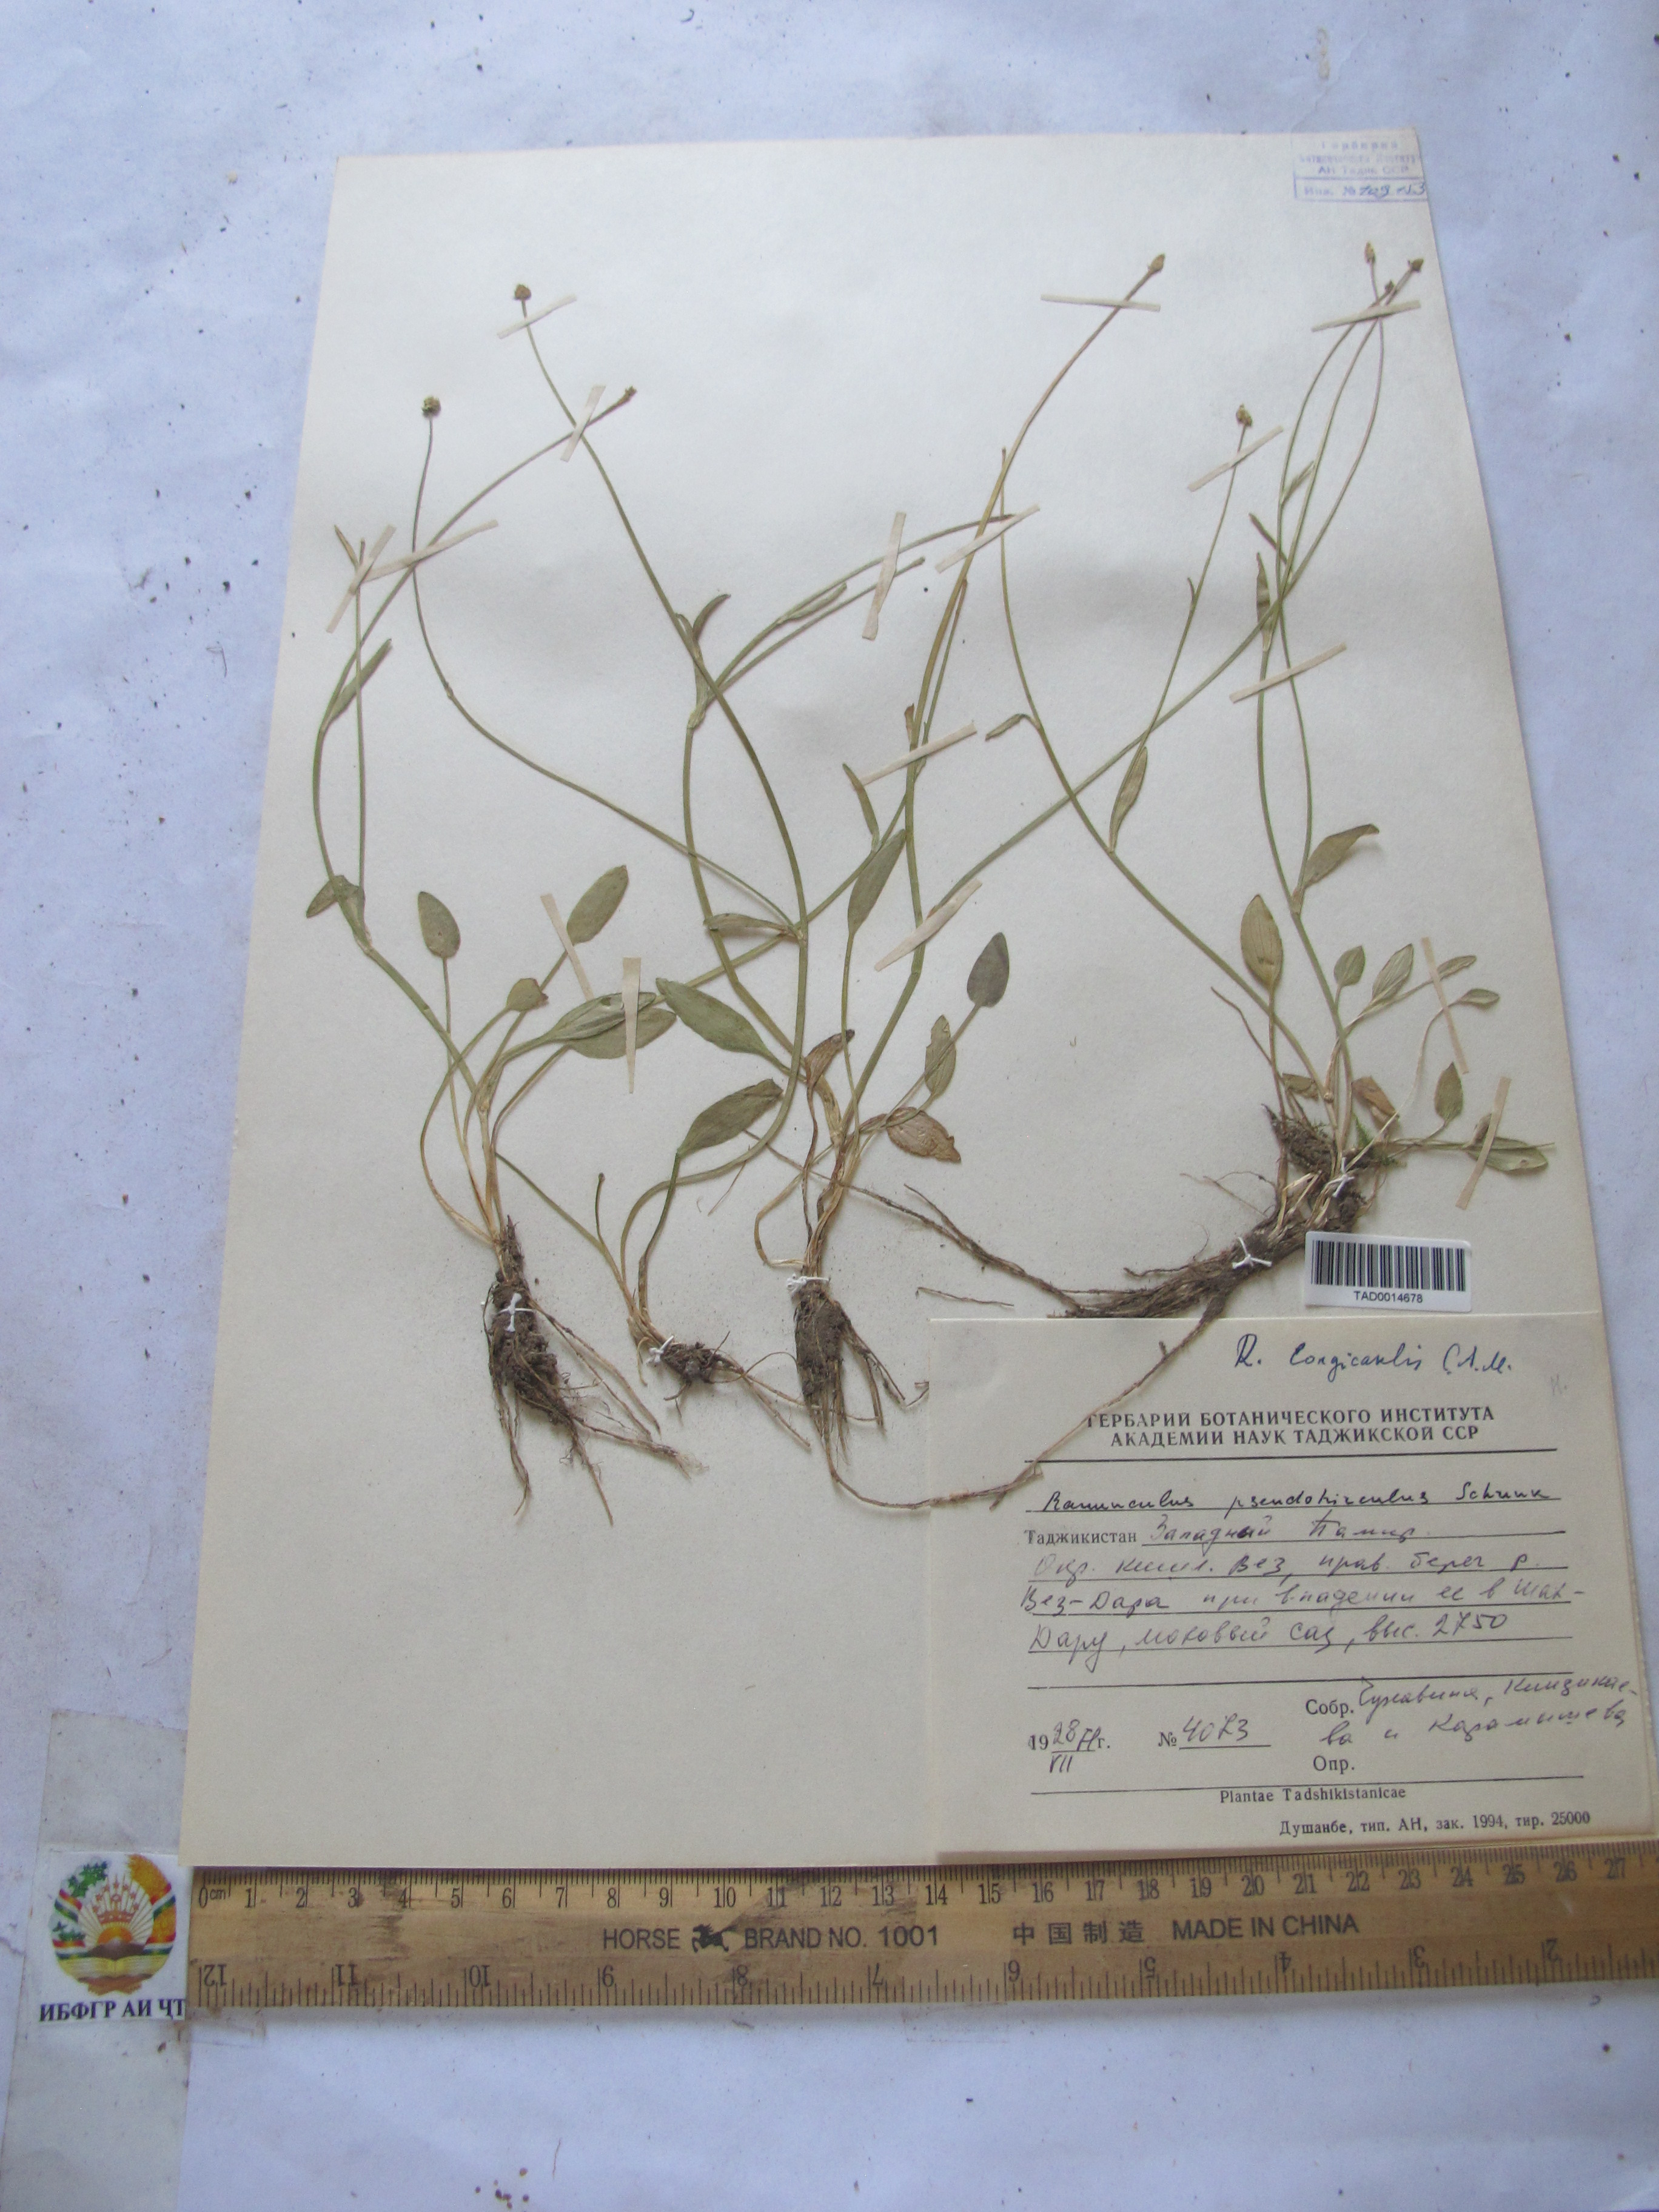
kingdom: Plantae
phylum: Tracheophyta
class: Magnoliopsida
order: Ranunculales
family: Ranunculaceae
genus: Ranunculus
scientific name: Ranunculus pseudohirculus
